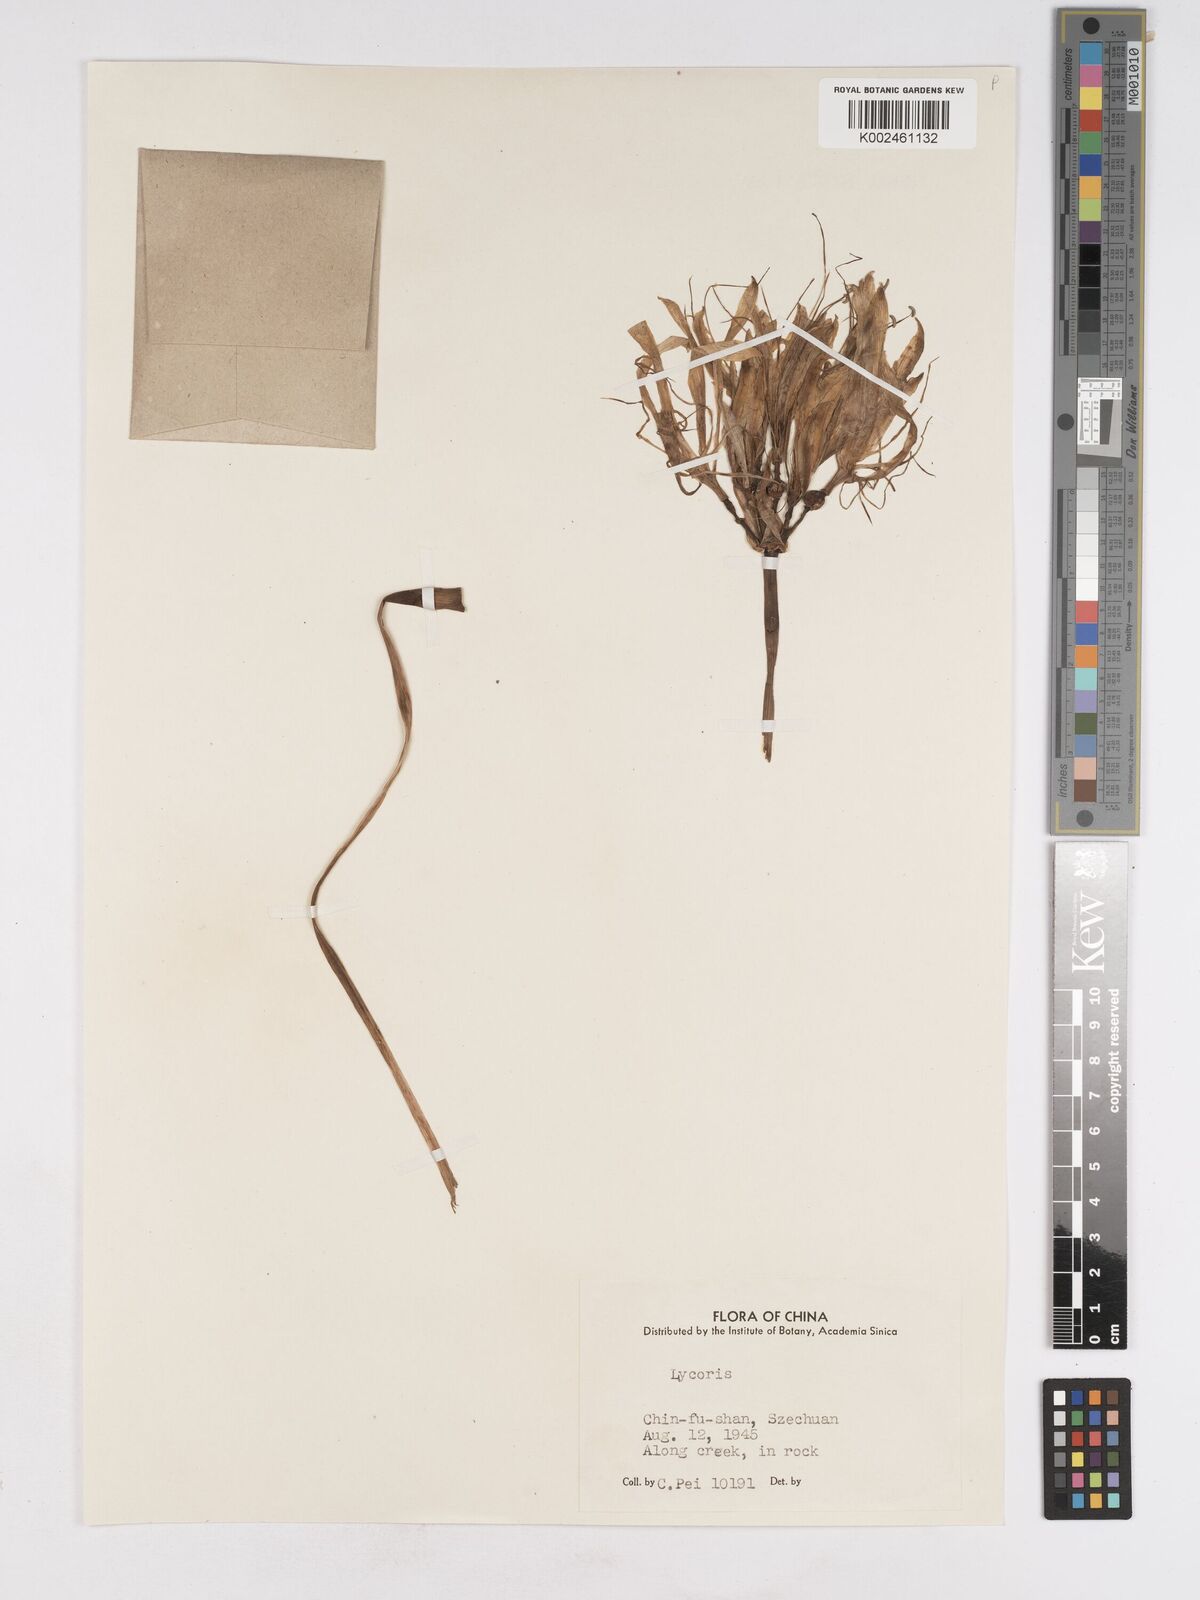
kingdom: Plantae
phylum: Tracheophyta
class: Liliopsida
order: Asparagales
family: Amaryllidaceae
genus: Lycoris
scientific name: Lycoris aurea
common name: Golden hurricane-lily
